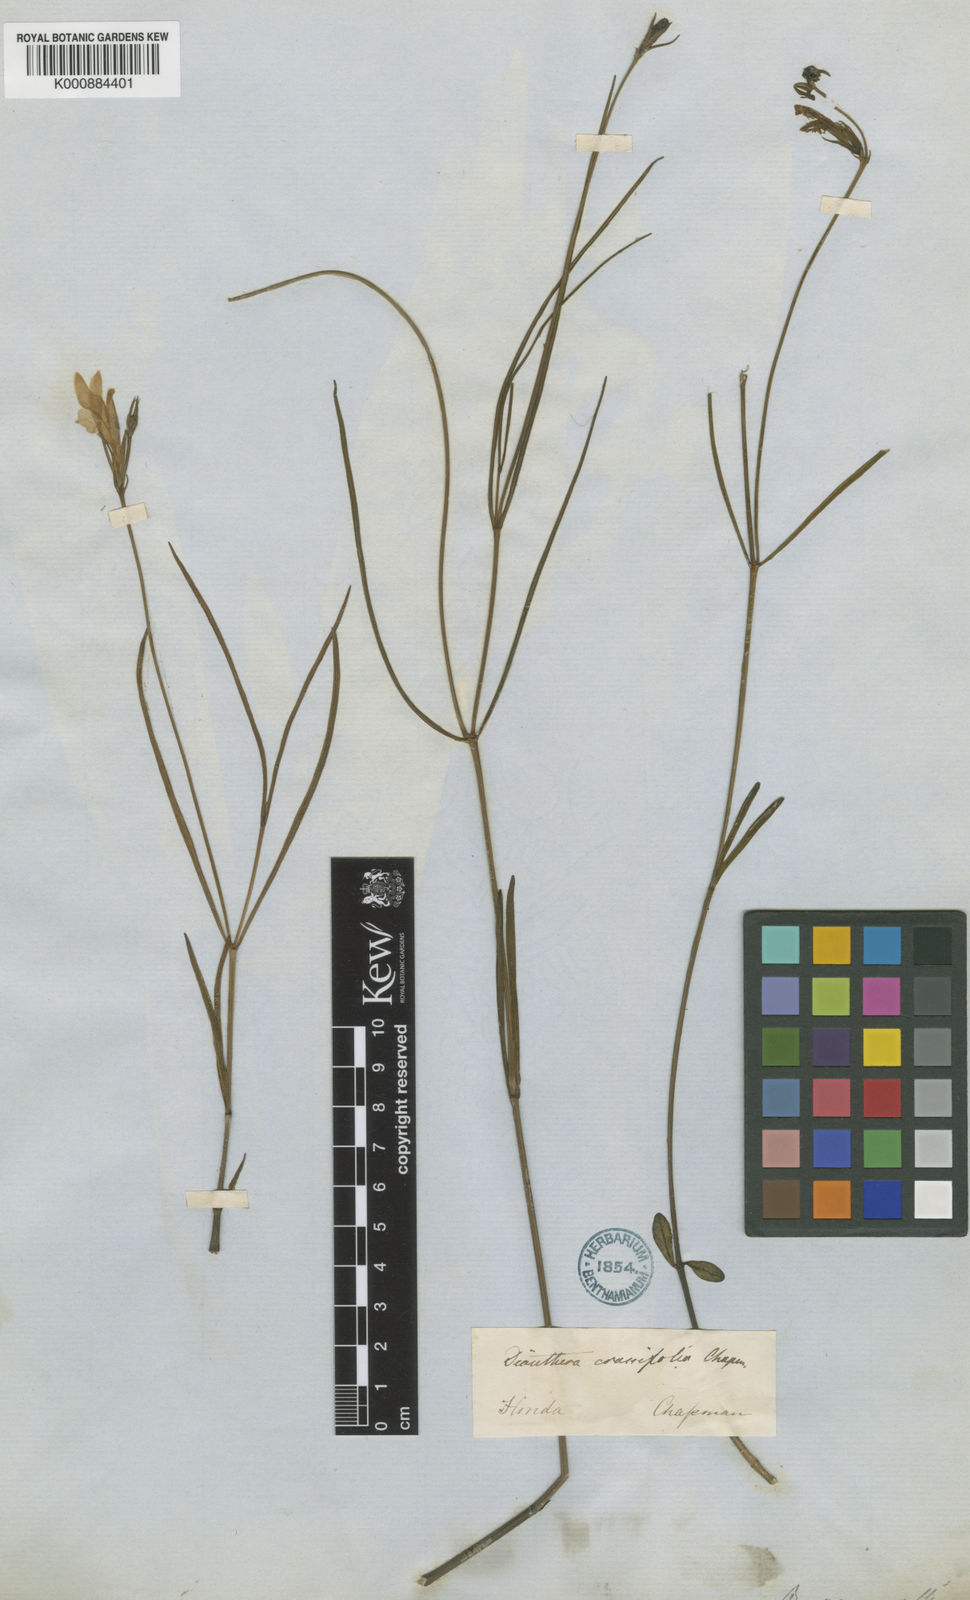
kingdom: Plantae
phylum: Tracheophyta
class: Magnoliopsida
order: Lamiales
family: Acanthaceae
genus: Dianthera
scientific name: Dianthera crassifolia
